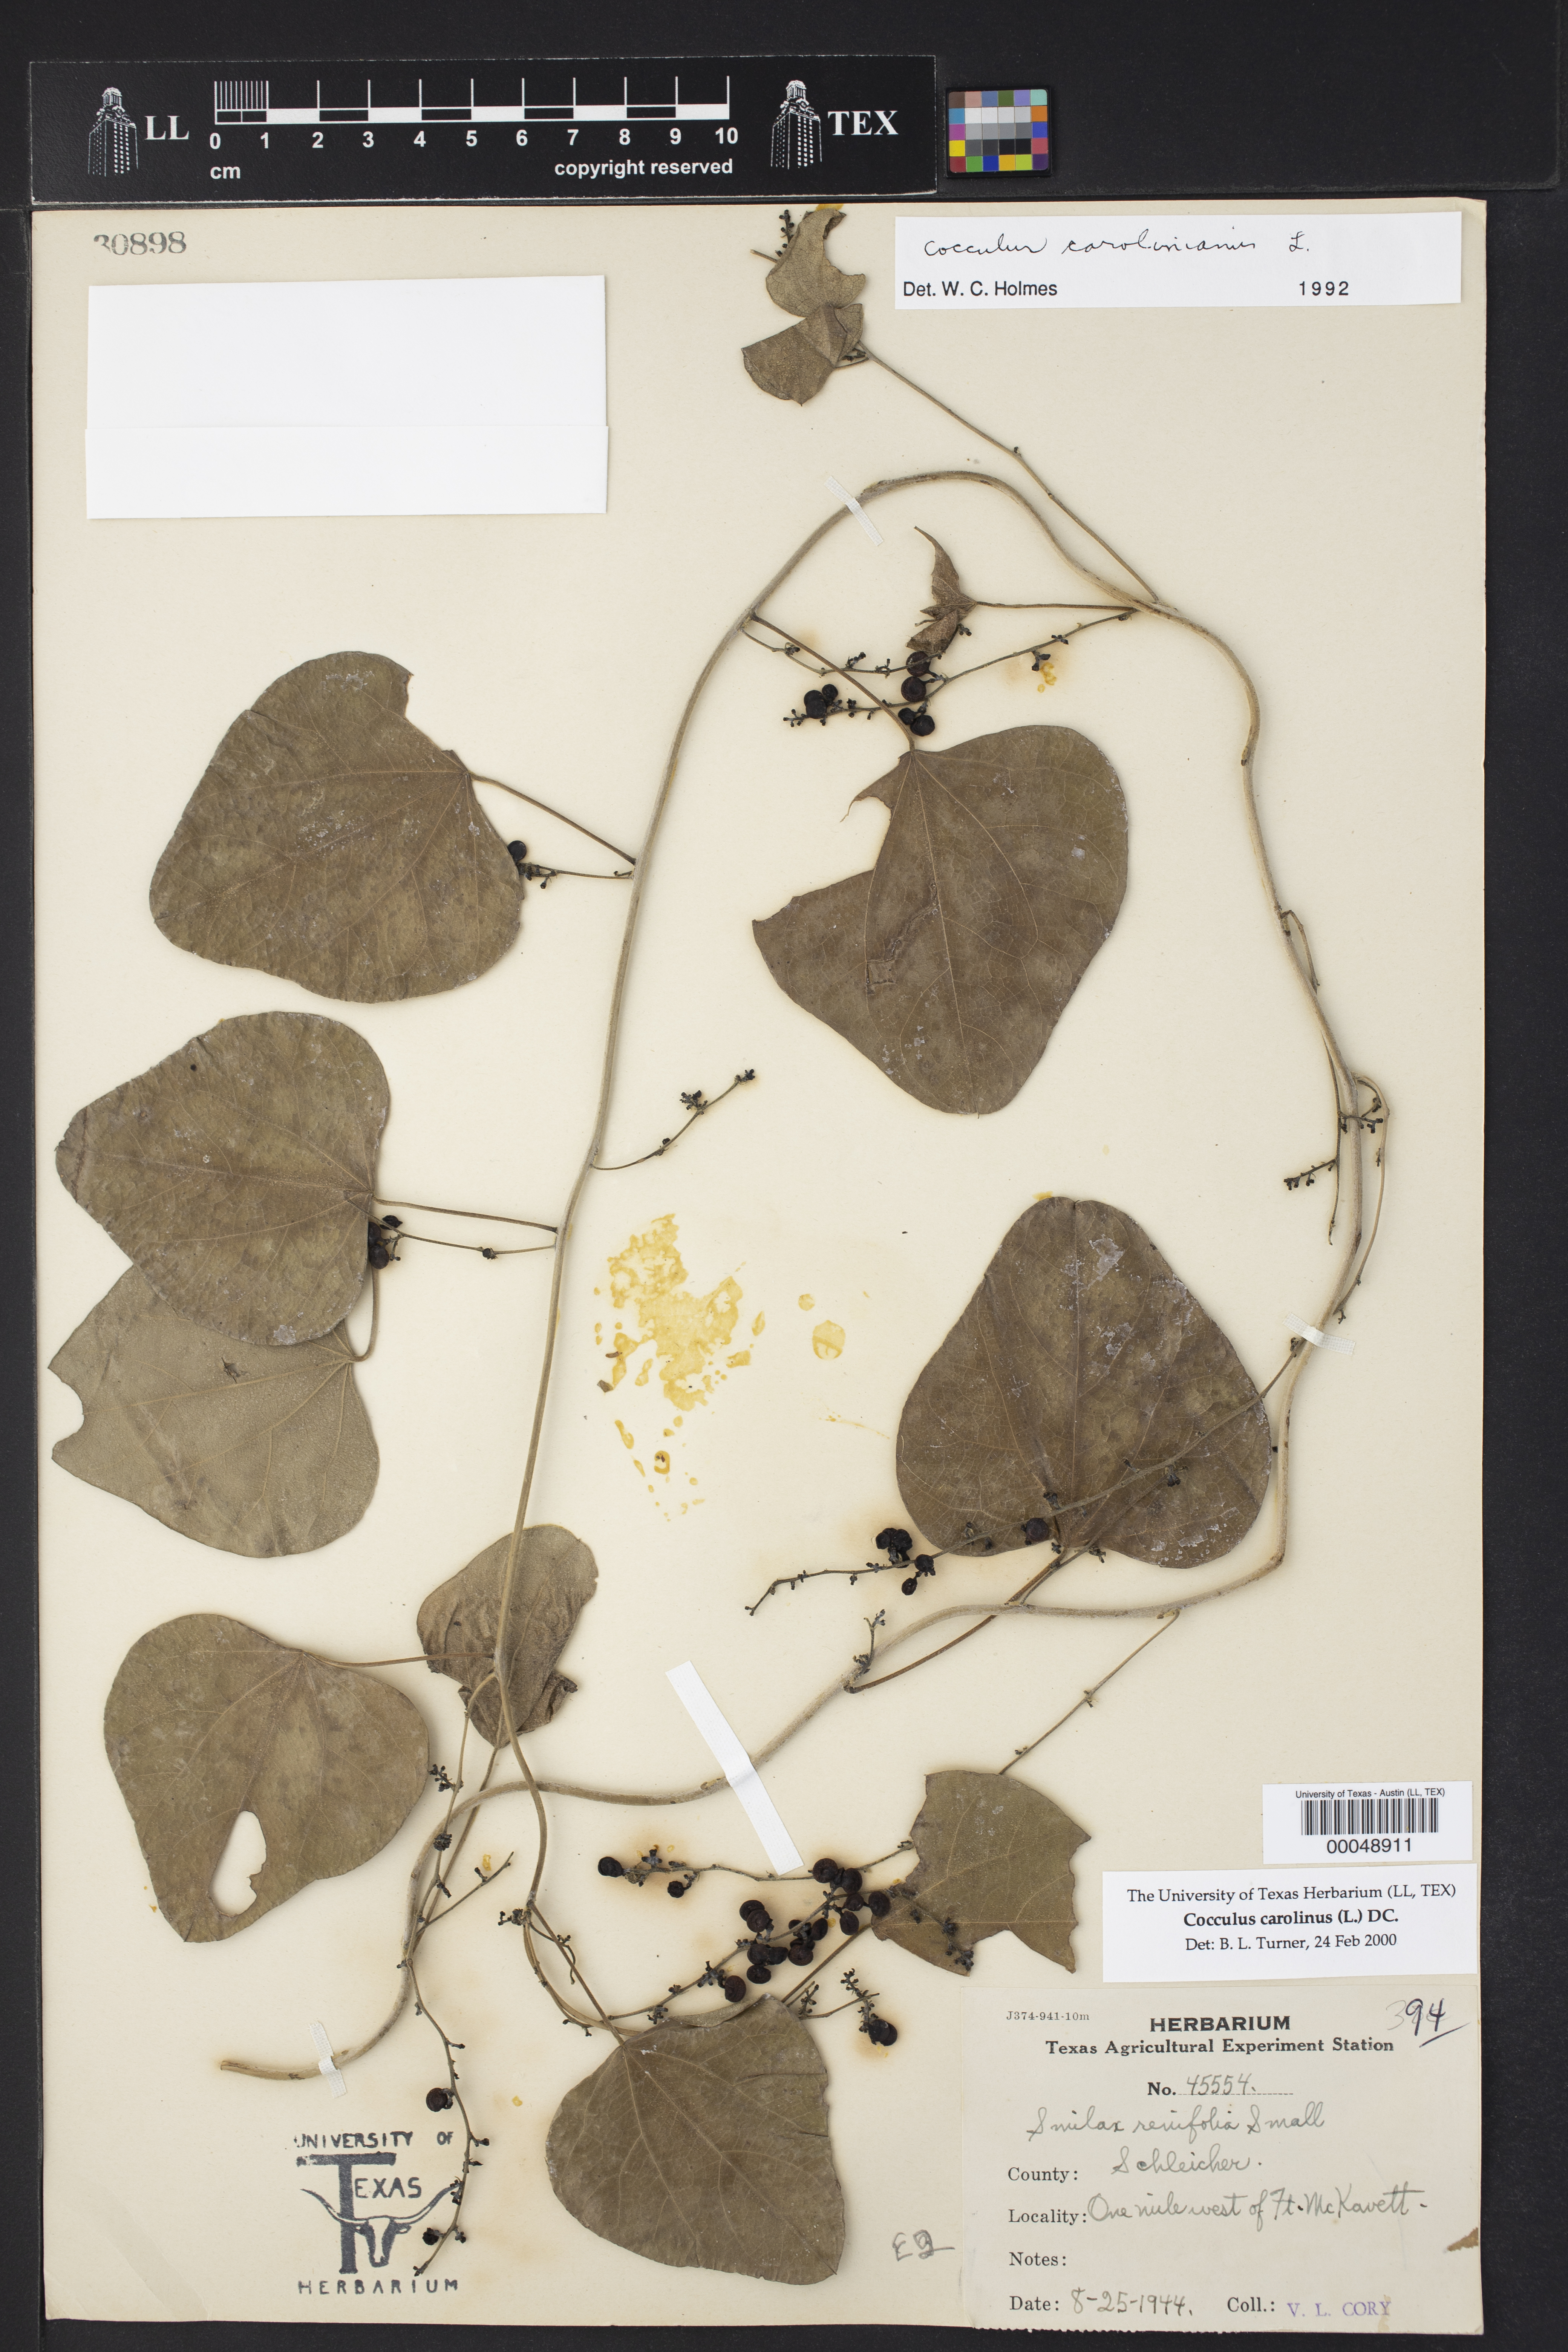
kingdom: Plantae
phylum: Tracheophyta
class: Magnoliopsida
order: Ranunculales
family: Menispermaceae
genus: Cocculus
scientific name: Cocculus carolinus
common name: Carolina moonseed
